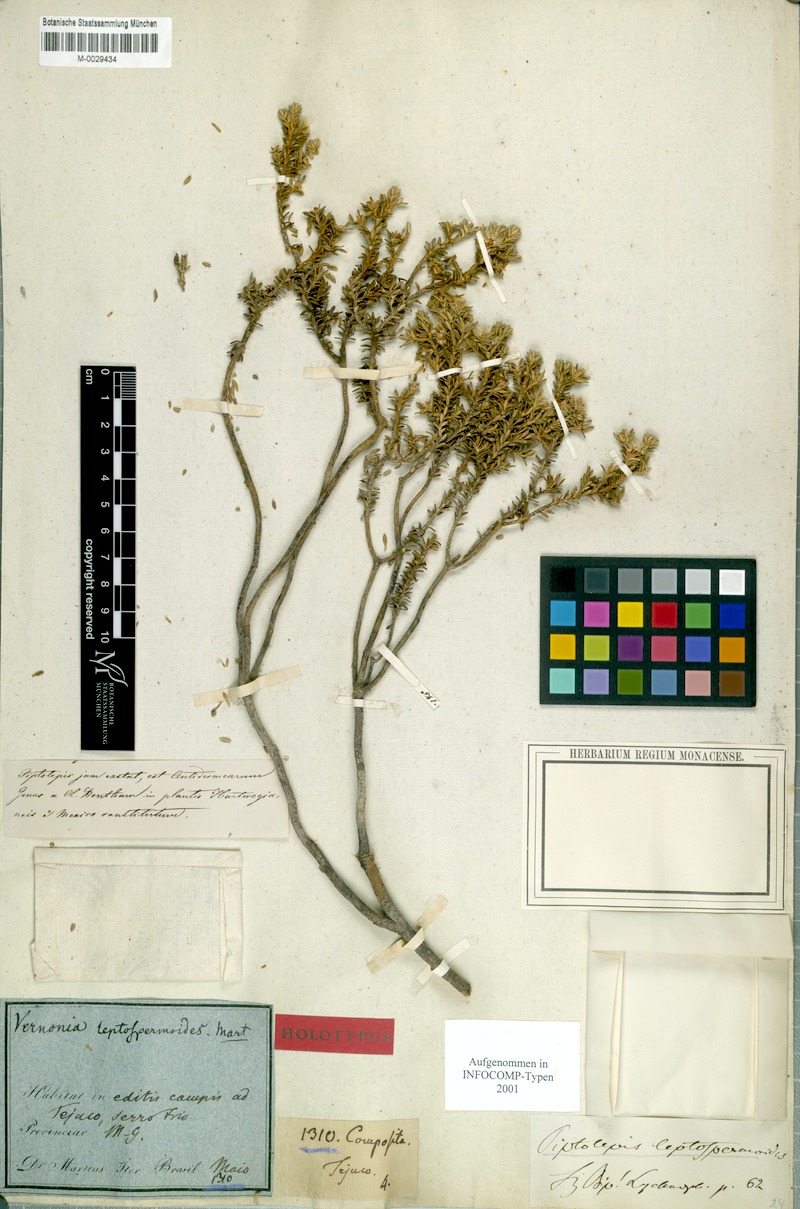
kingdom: Plantae
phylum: Tracheophyta
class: Magnoliopsida
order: Asterales
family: Asteraceae
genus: Piptolepis
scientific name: Piptolepis leptospermoides
